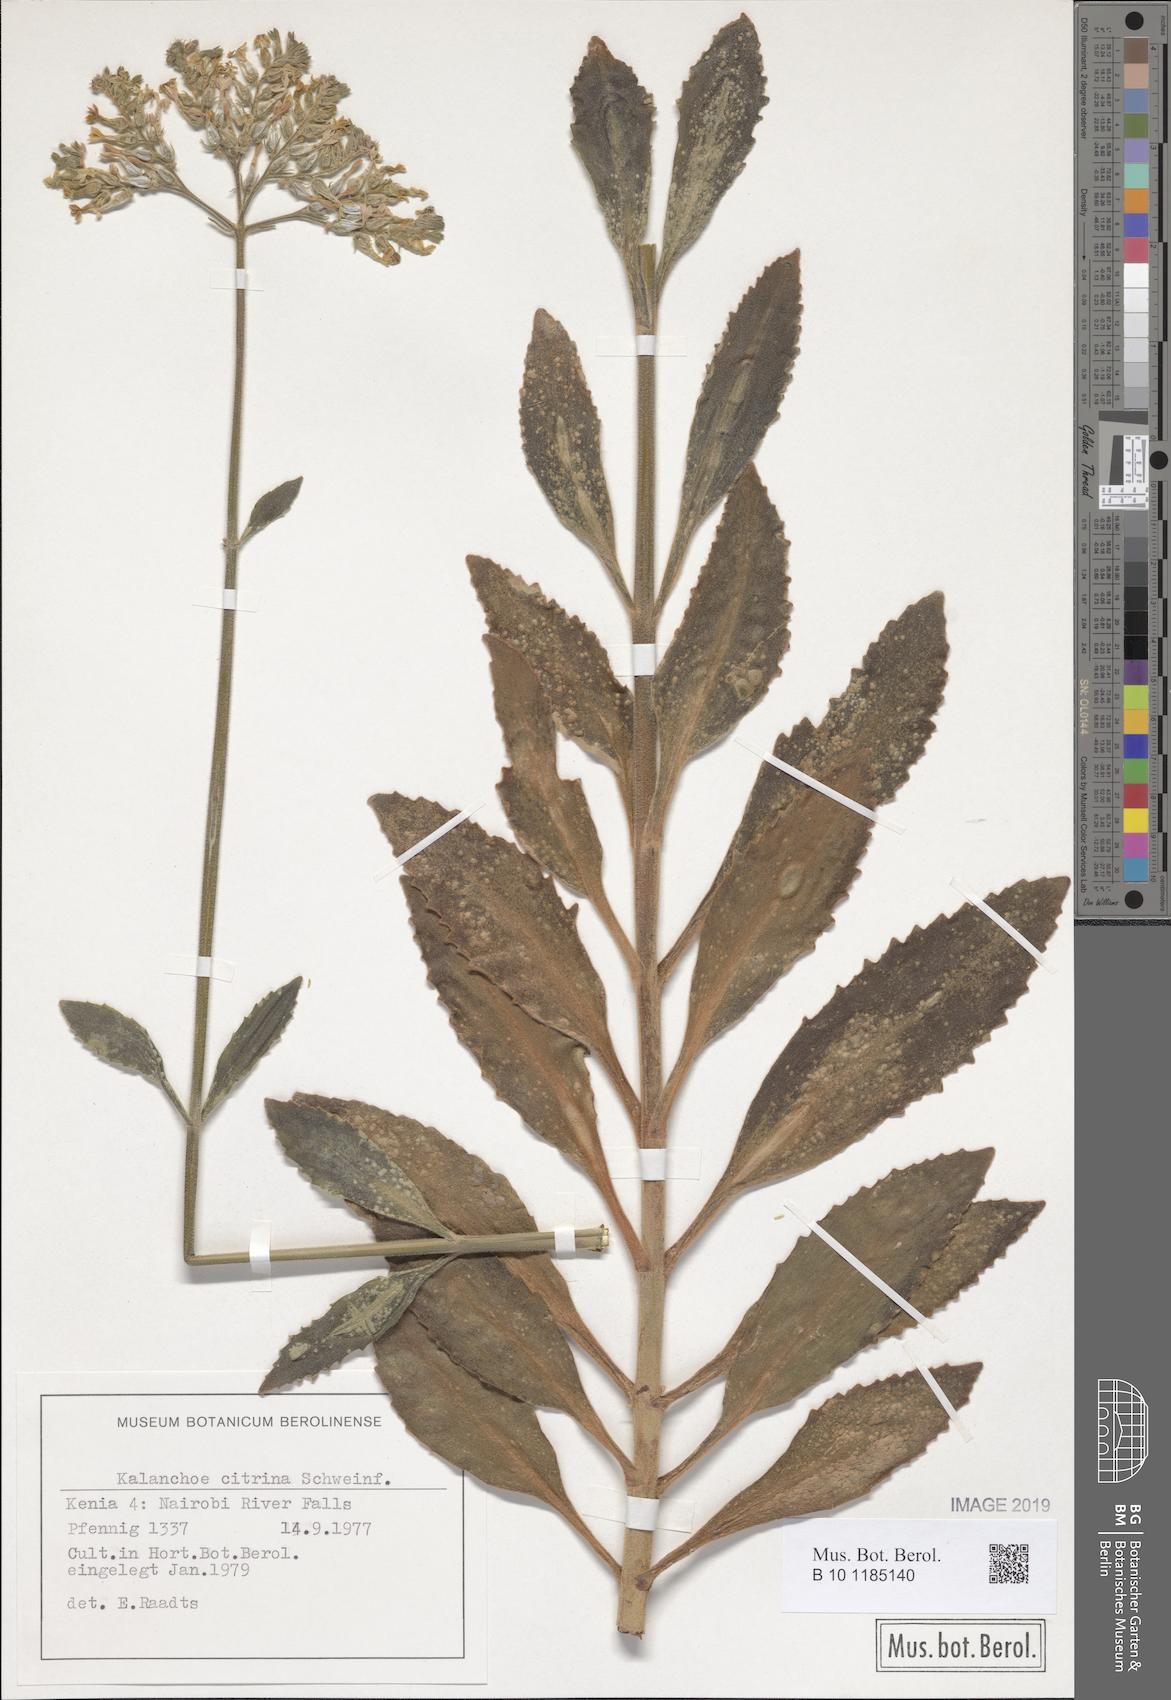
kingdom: Plantae
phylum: Tracheophyta
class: Magnoliopsida
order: Saxifragales
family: Crassulaceae
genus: Kalanchoe
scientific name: Kalanchoe citrina
